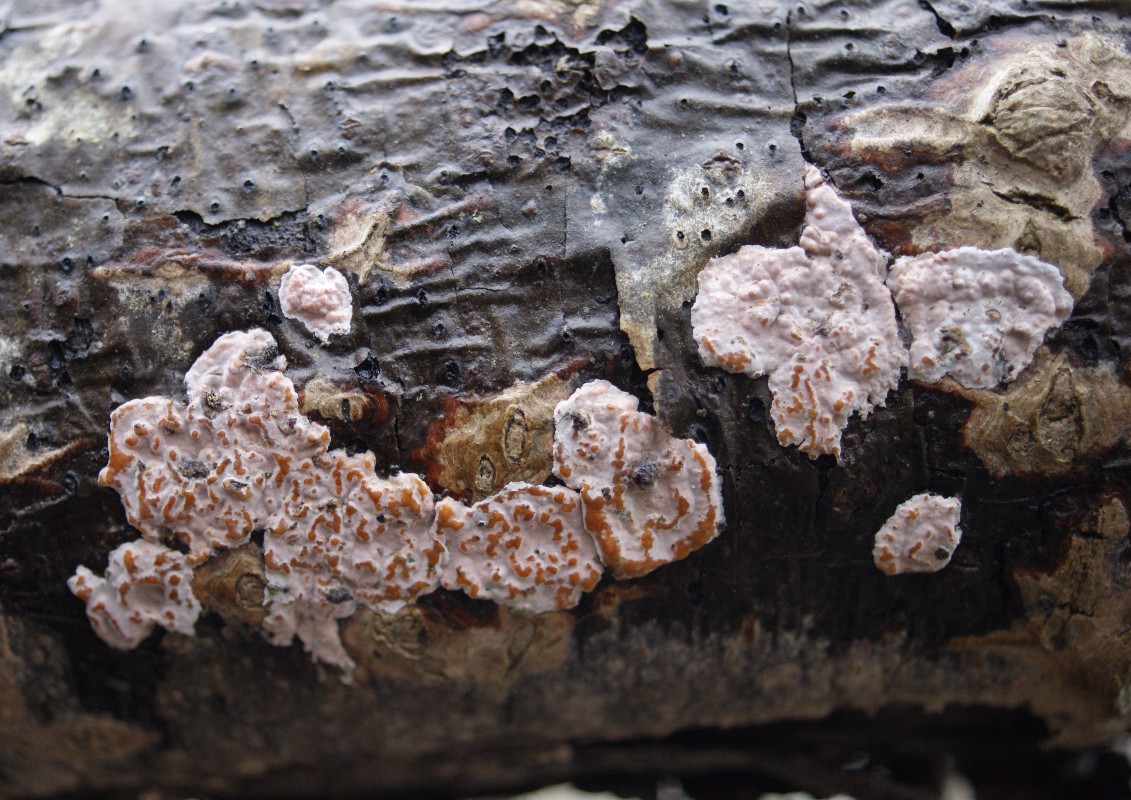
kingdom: Fungi
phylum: Basidiomycota
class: Agaricomycetes
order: Russulales
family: Peniophoraceae
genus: Peniophora
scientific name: Peniophora polygonia
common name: polygon-voksskind
